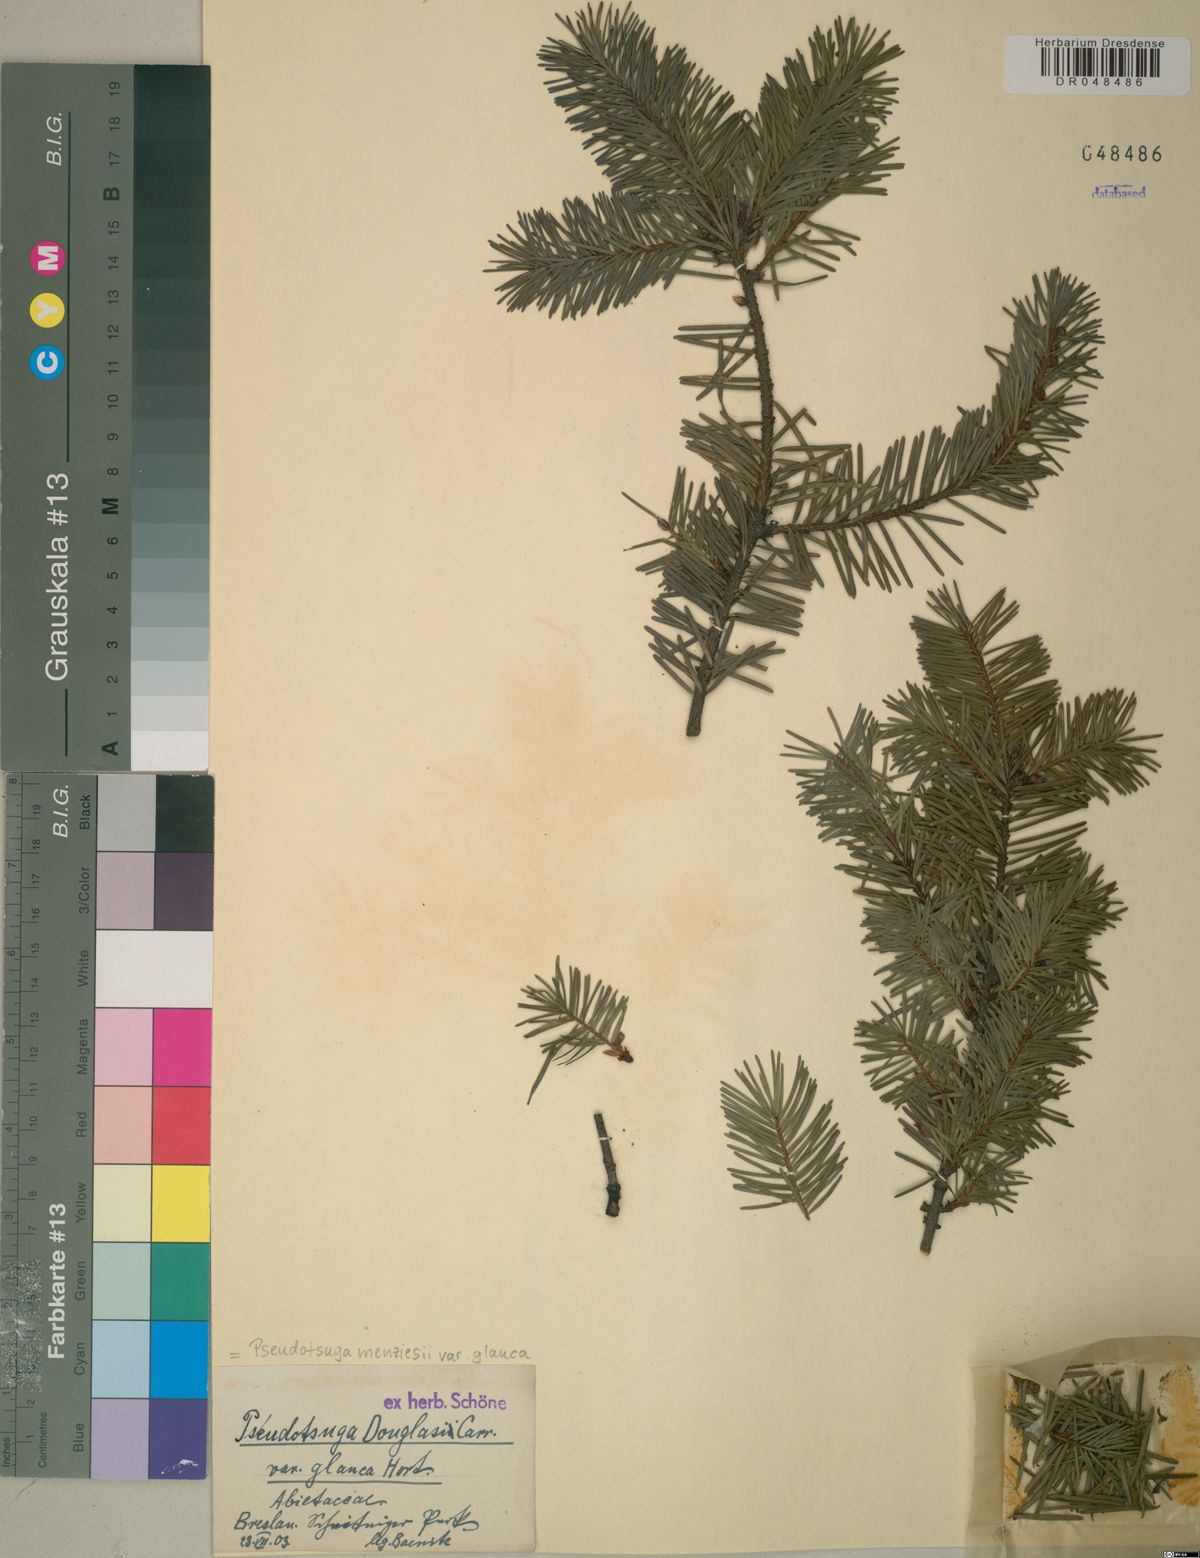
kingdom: Plantae
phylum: Tracheophyta
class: Pinopsida
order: Pinales
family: Pinaceae
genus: Pseudotsuga
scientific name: Pseudotsuga menziesii
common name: Douglas fir
